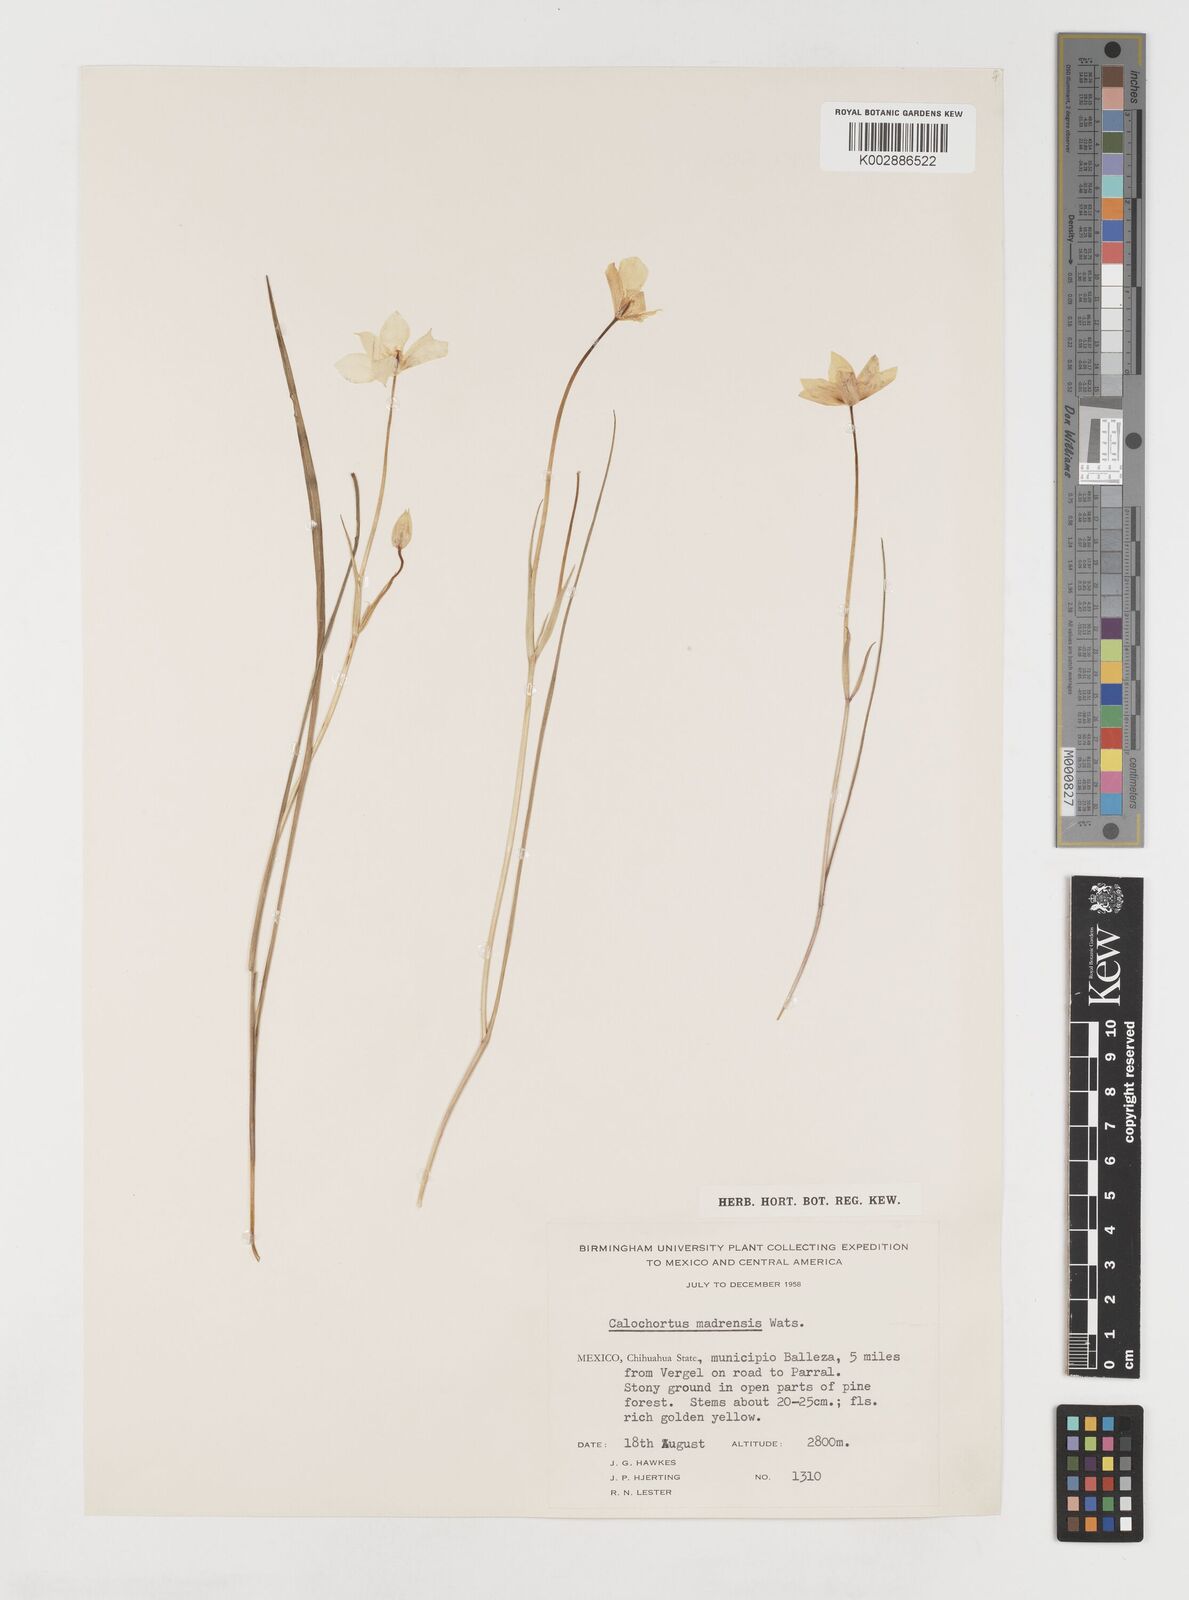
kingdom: Plantae
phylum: Tracheophyta
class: Liliopsida
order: Liliales
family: Liliaceae
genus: Calochortus
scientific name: Calochortus venustulus
